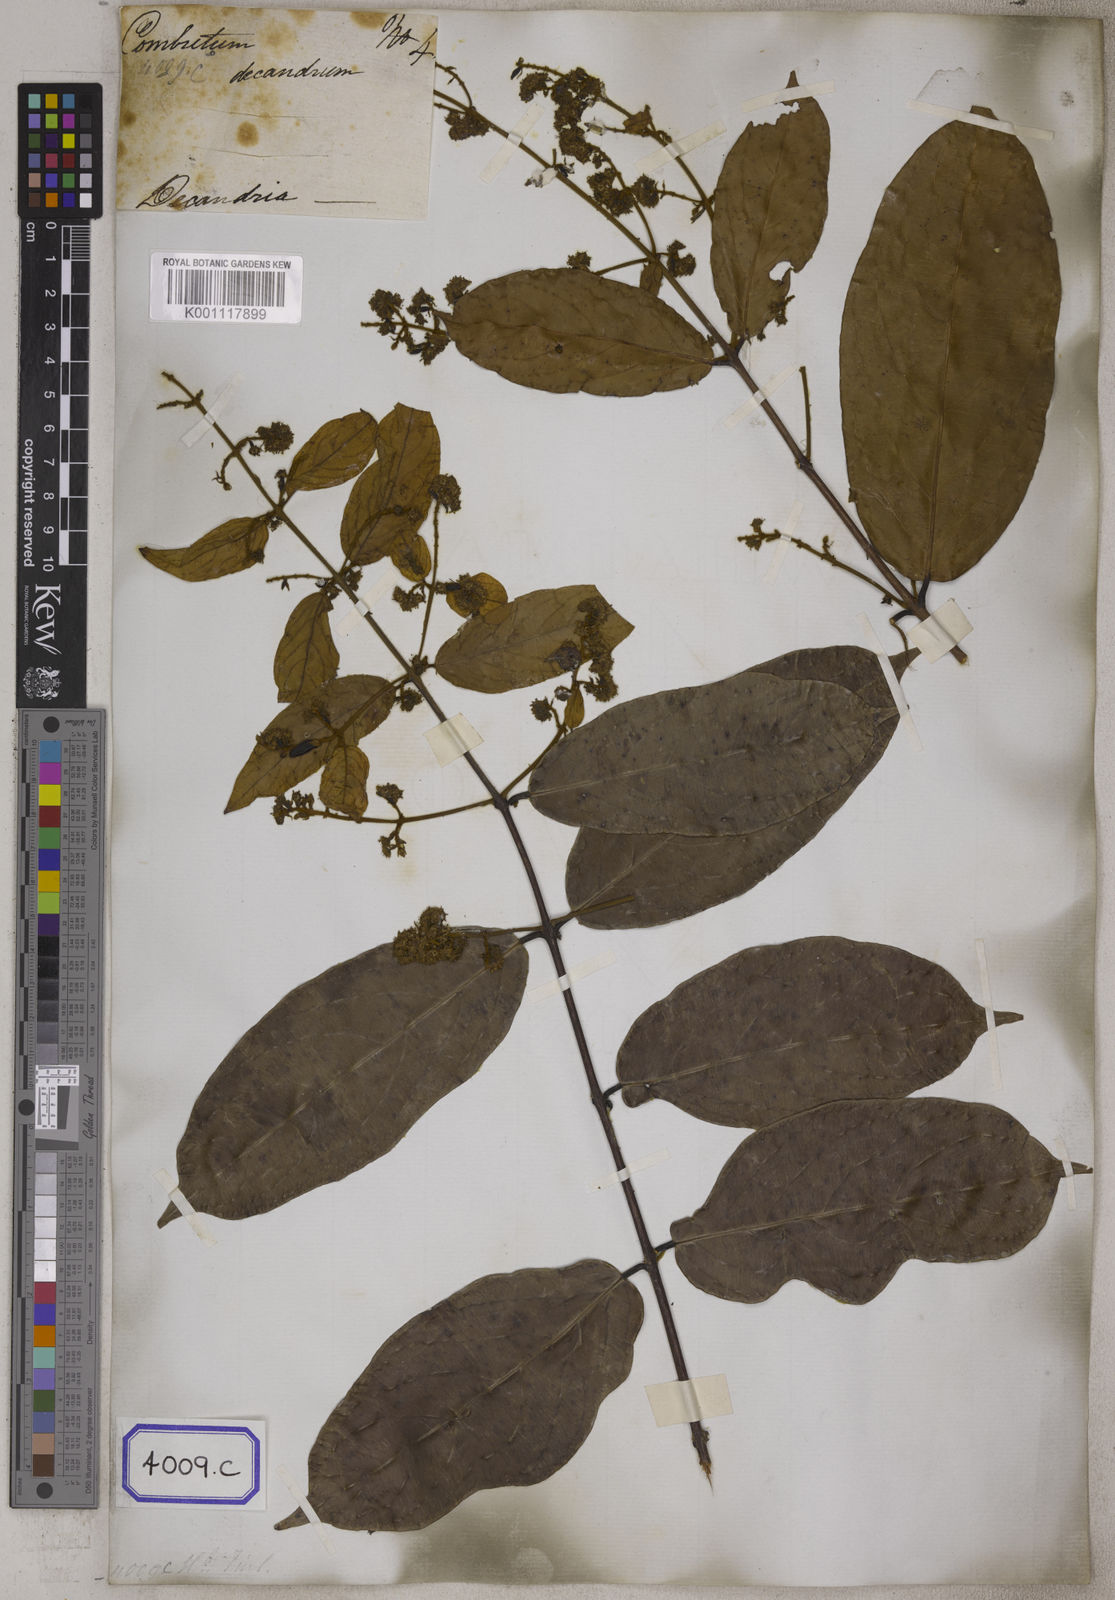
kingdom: Plantae
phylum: Tracheophyta
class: Magnoliopsida
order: Myrtales
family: Combretaceae
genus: Combretum
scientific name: Combretum decandrum
